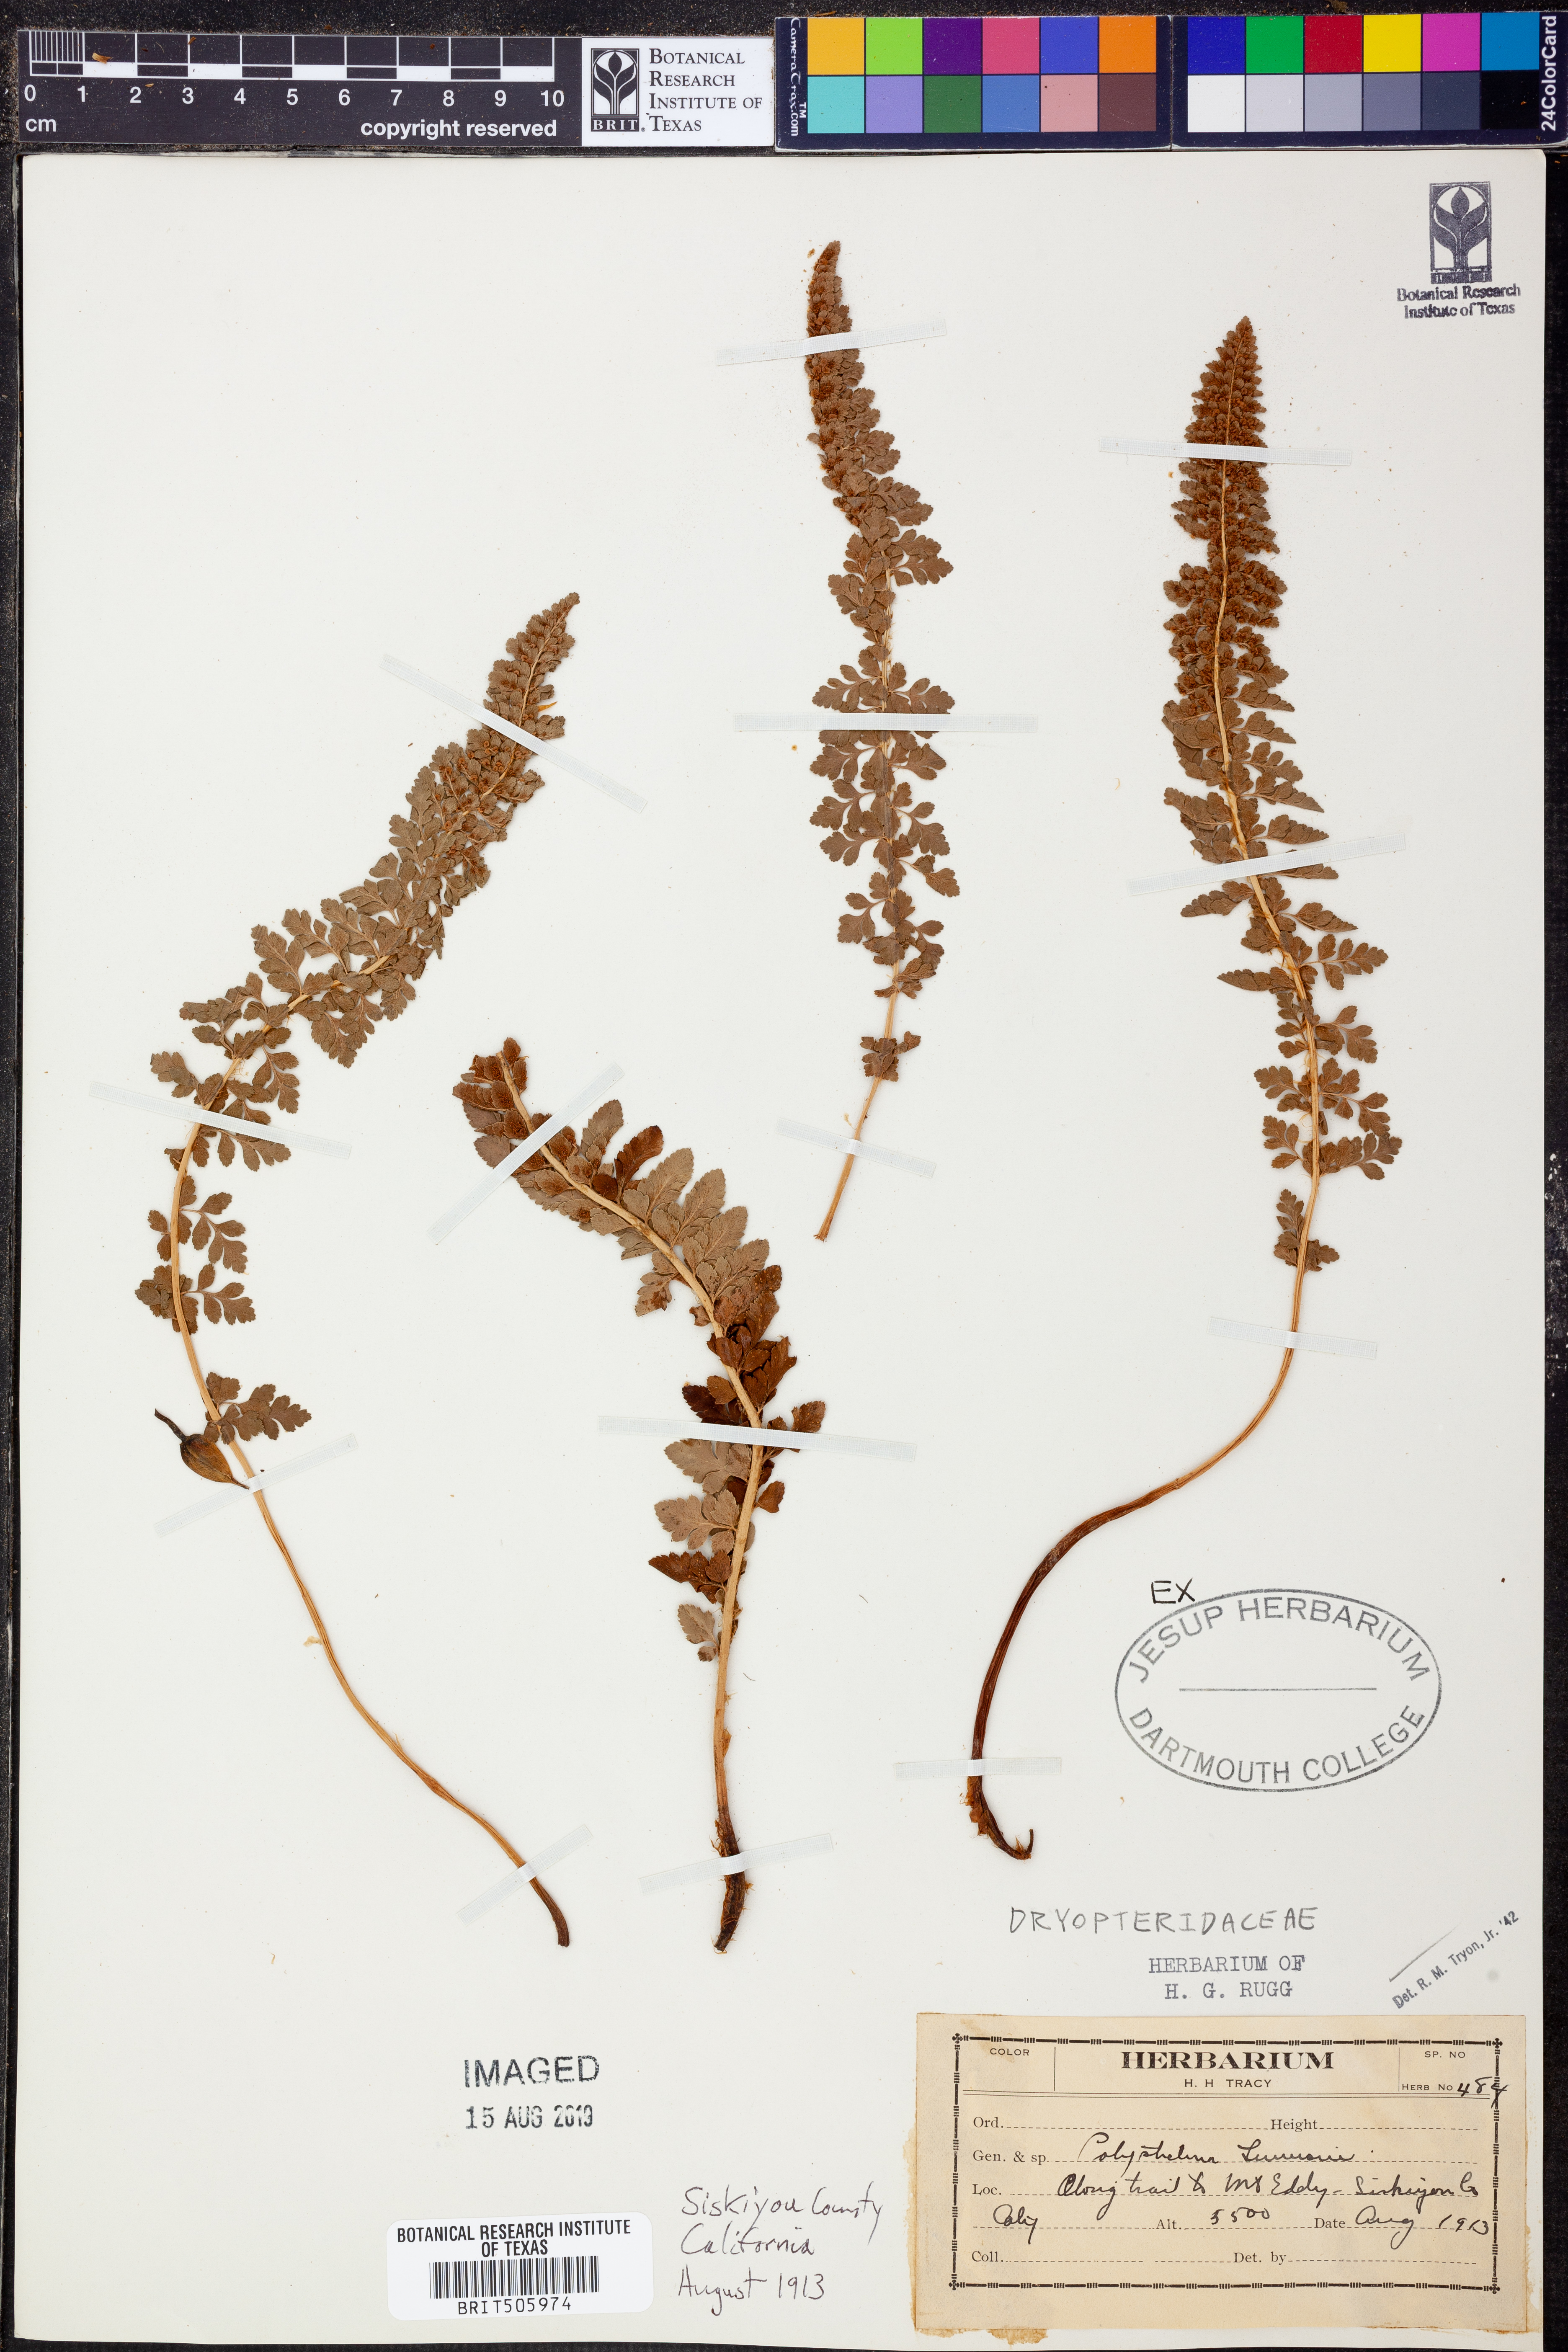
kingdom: Plantae
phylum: Tracheophyta
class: Polypodiopsida
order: Polypodiales
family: Dryopteridaceae
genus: Polystichum
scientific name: Polystichum
